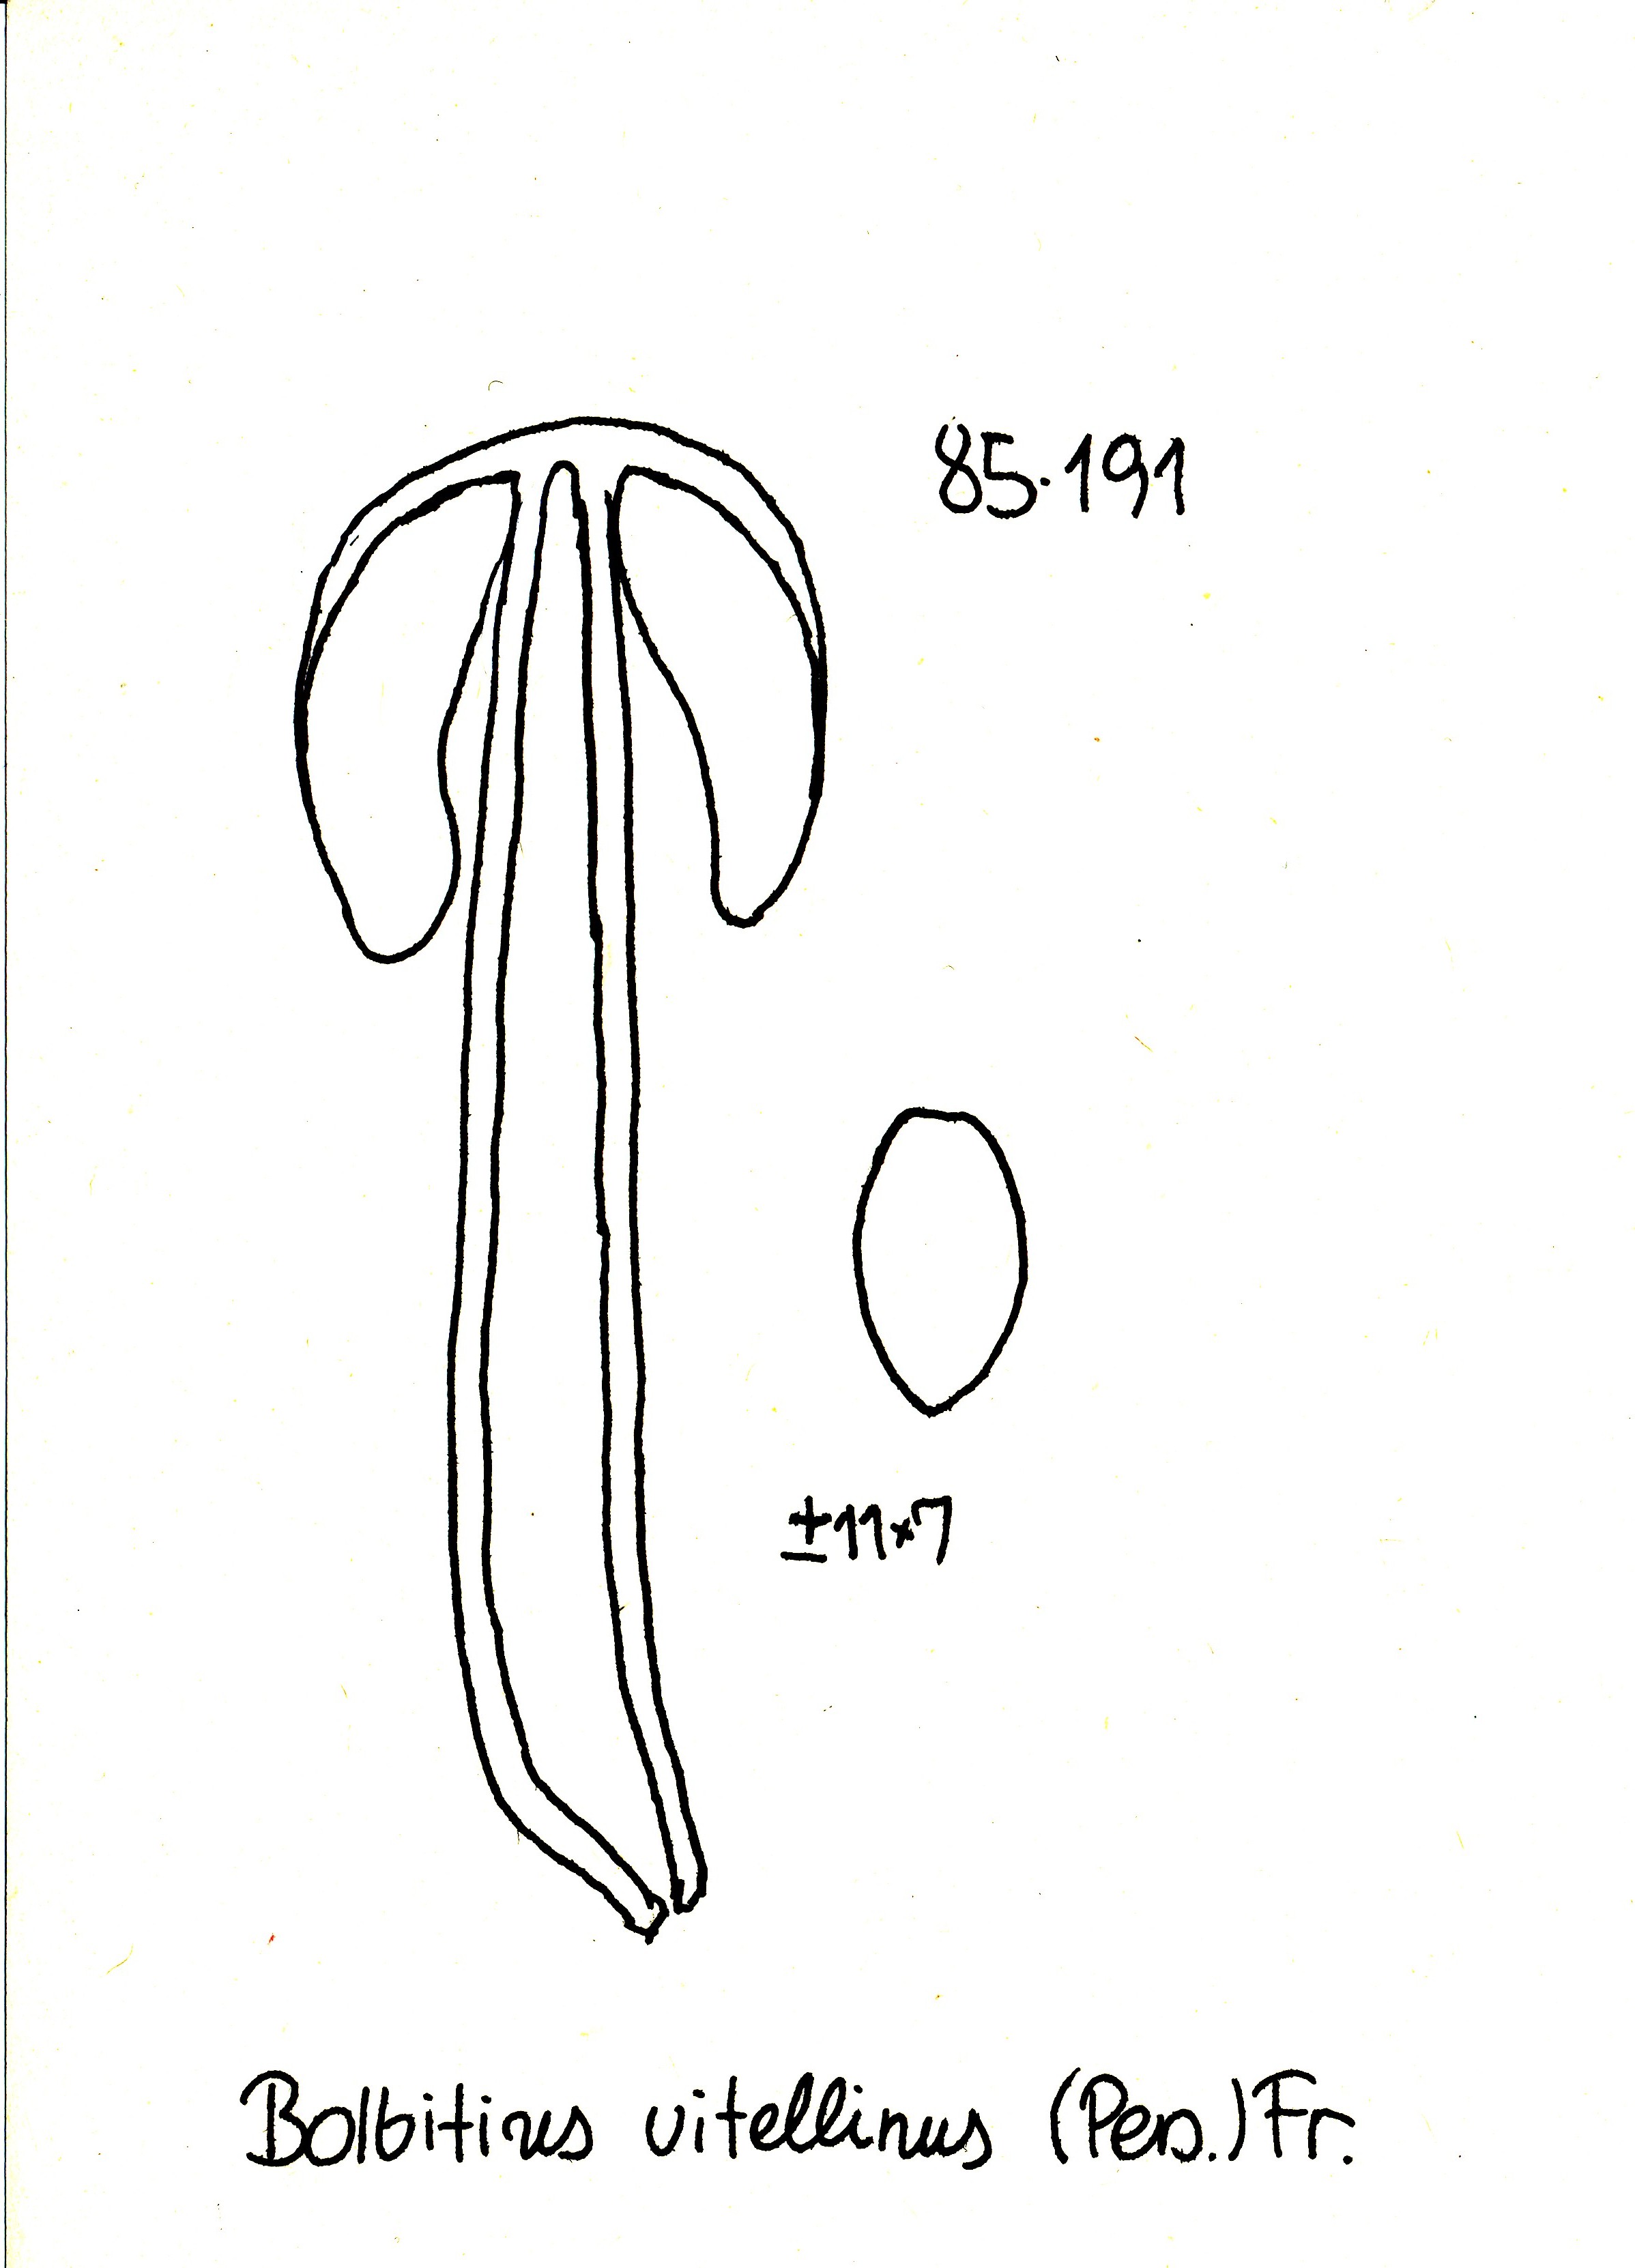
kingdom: Fungi
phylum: Basidiomycota
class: Agaricomycetes
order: Agaricales
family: Bolbitiaceae
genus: Bolbitius
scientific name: Bolbitius titubans
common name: almindelig gulhat
